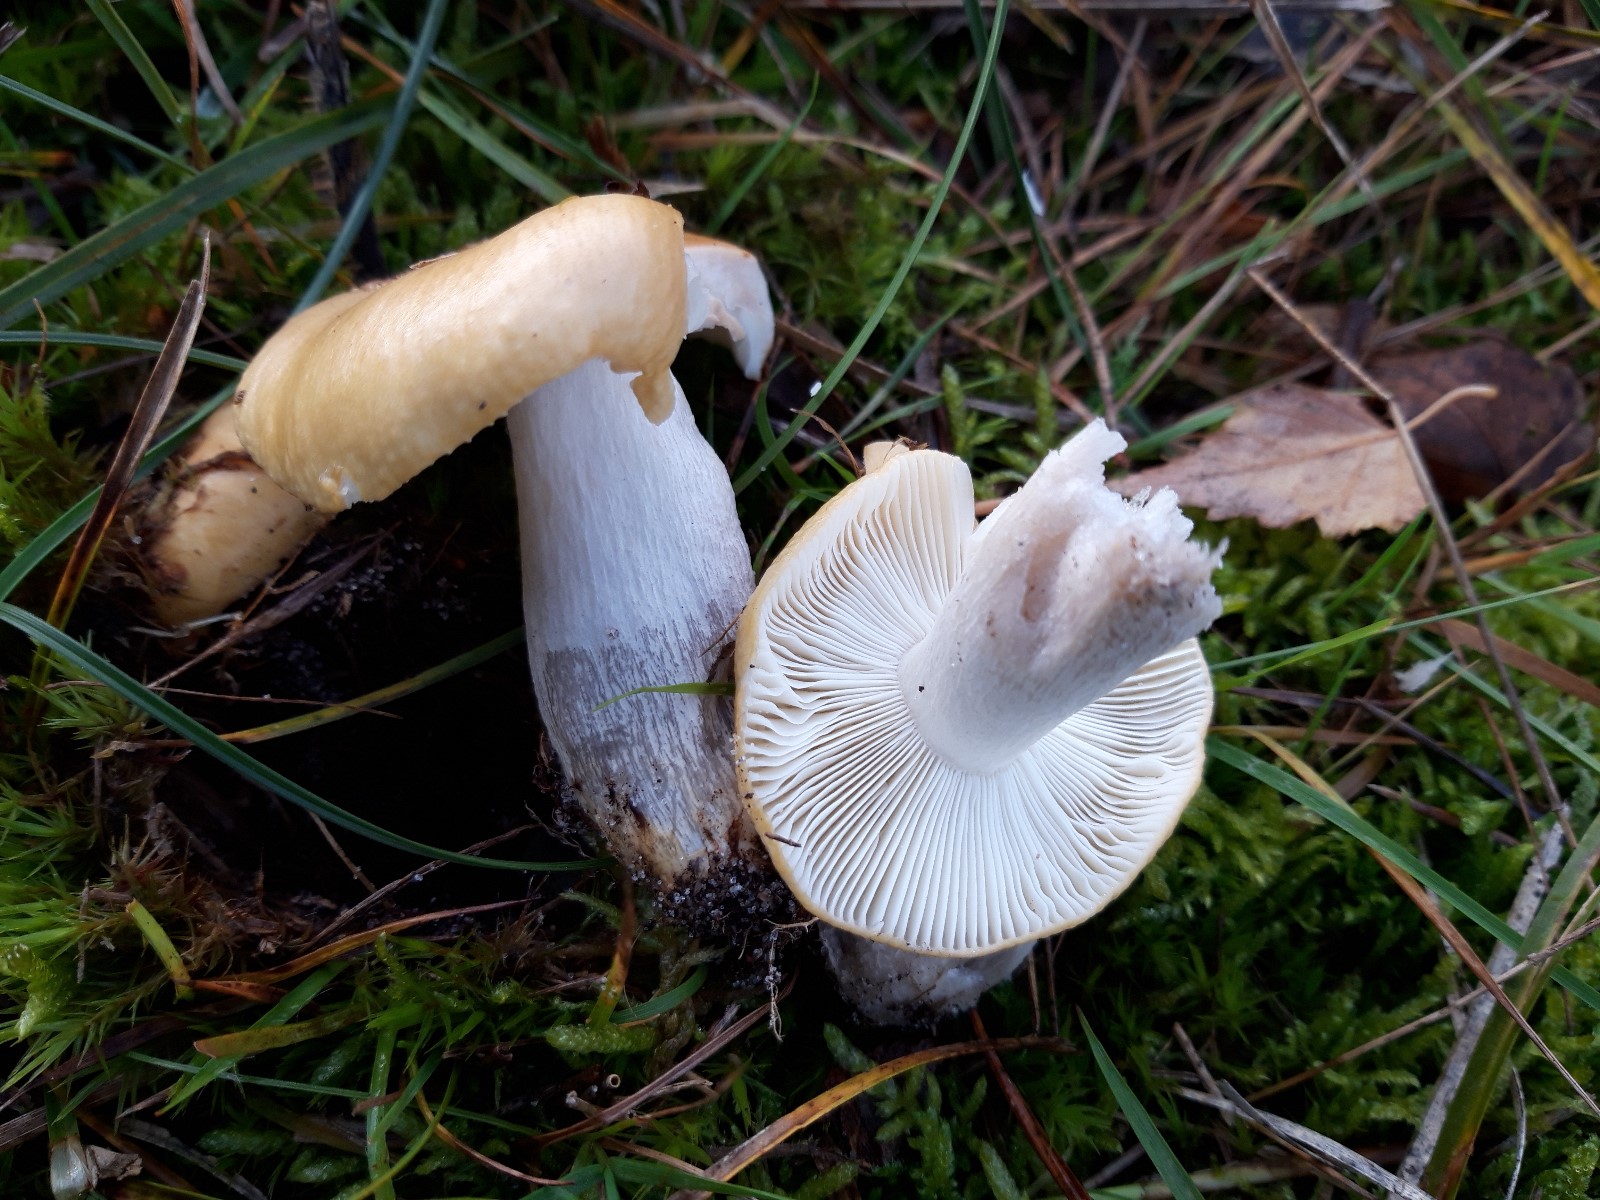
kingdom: Fungi
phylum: Basidiomycota
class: Agaricomycetes
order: Russulales
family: Russulaceae
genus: Russula
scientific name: Russula ochroleuca
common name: okkergul skørhat
